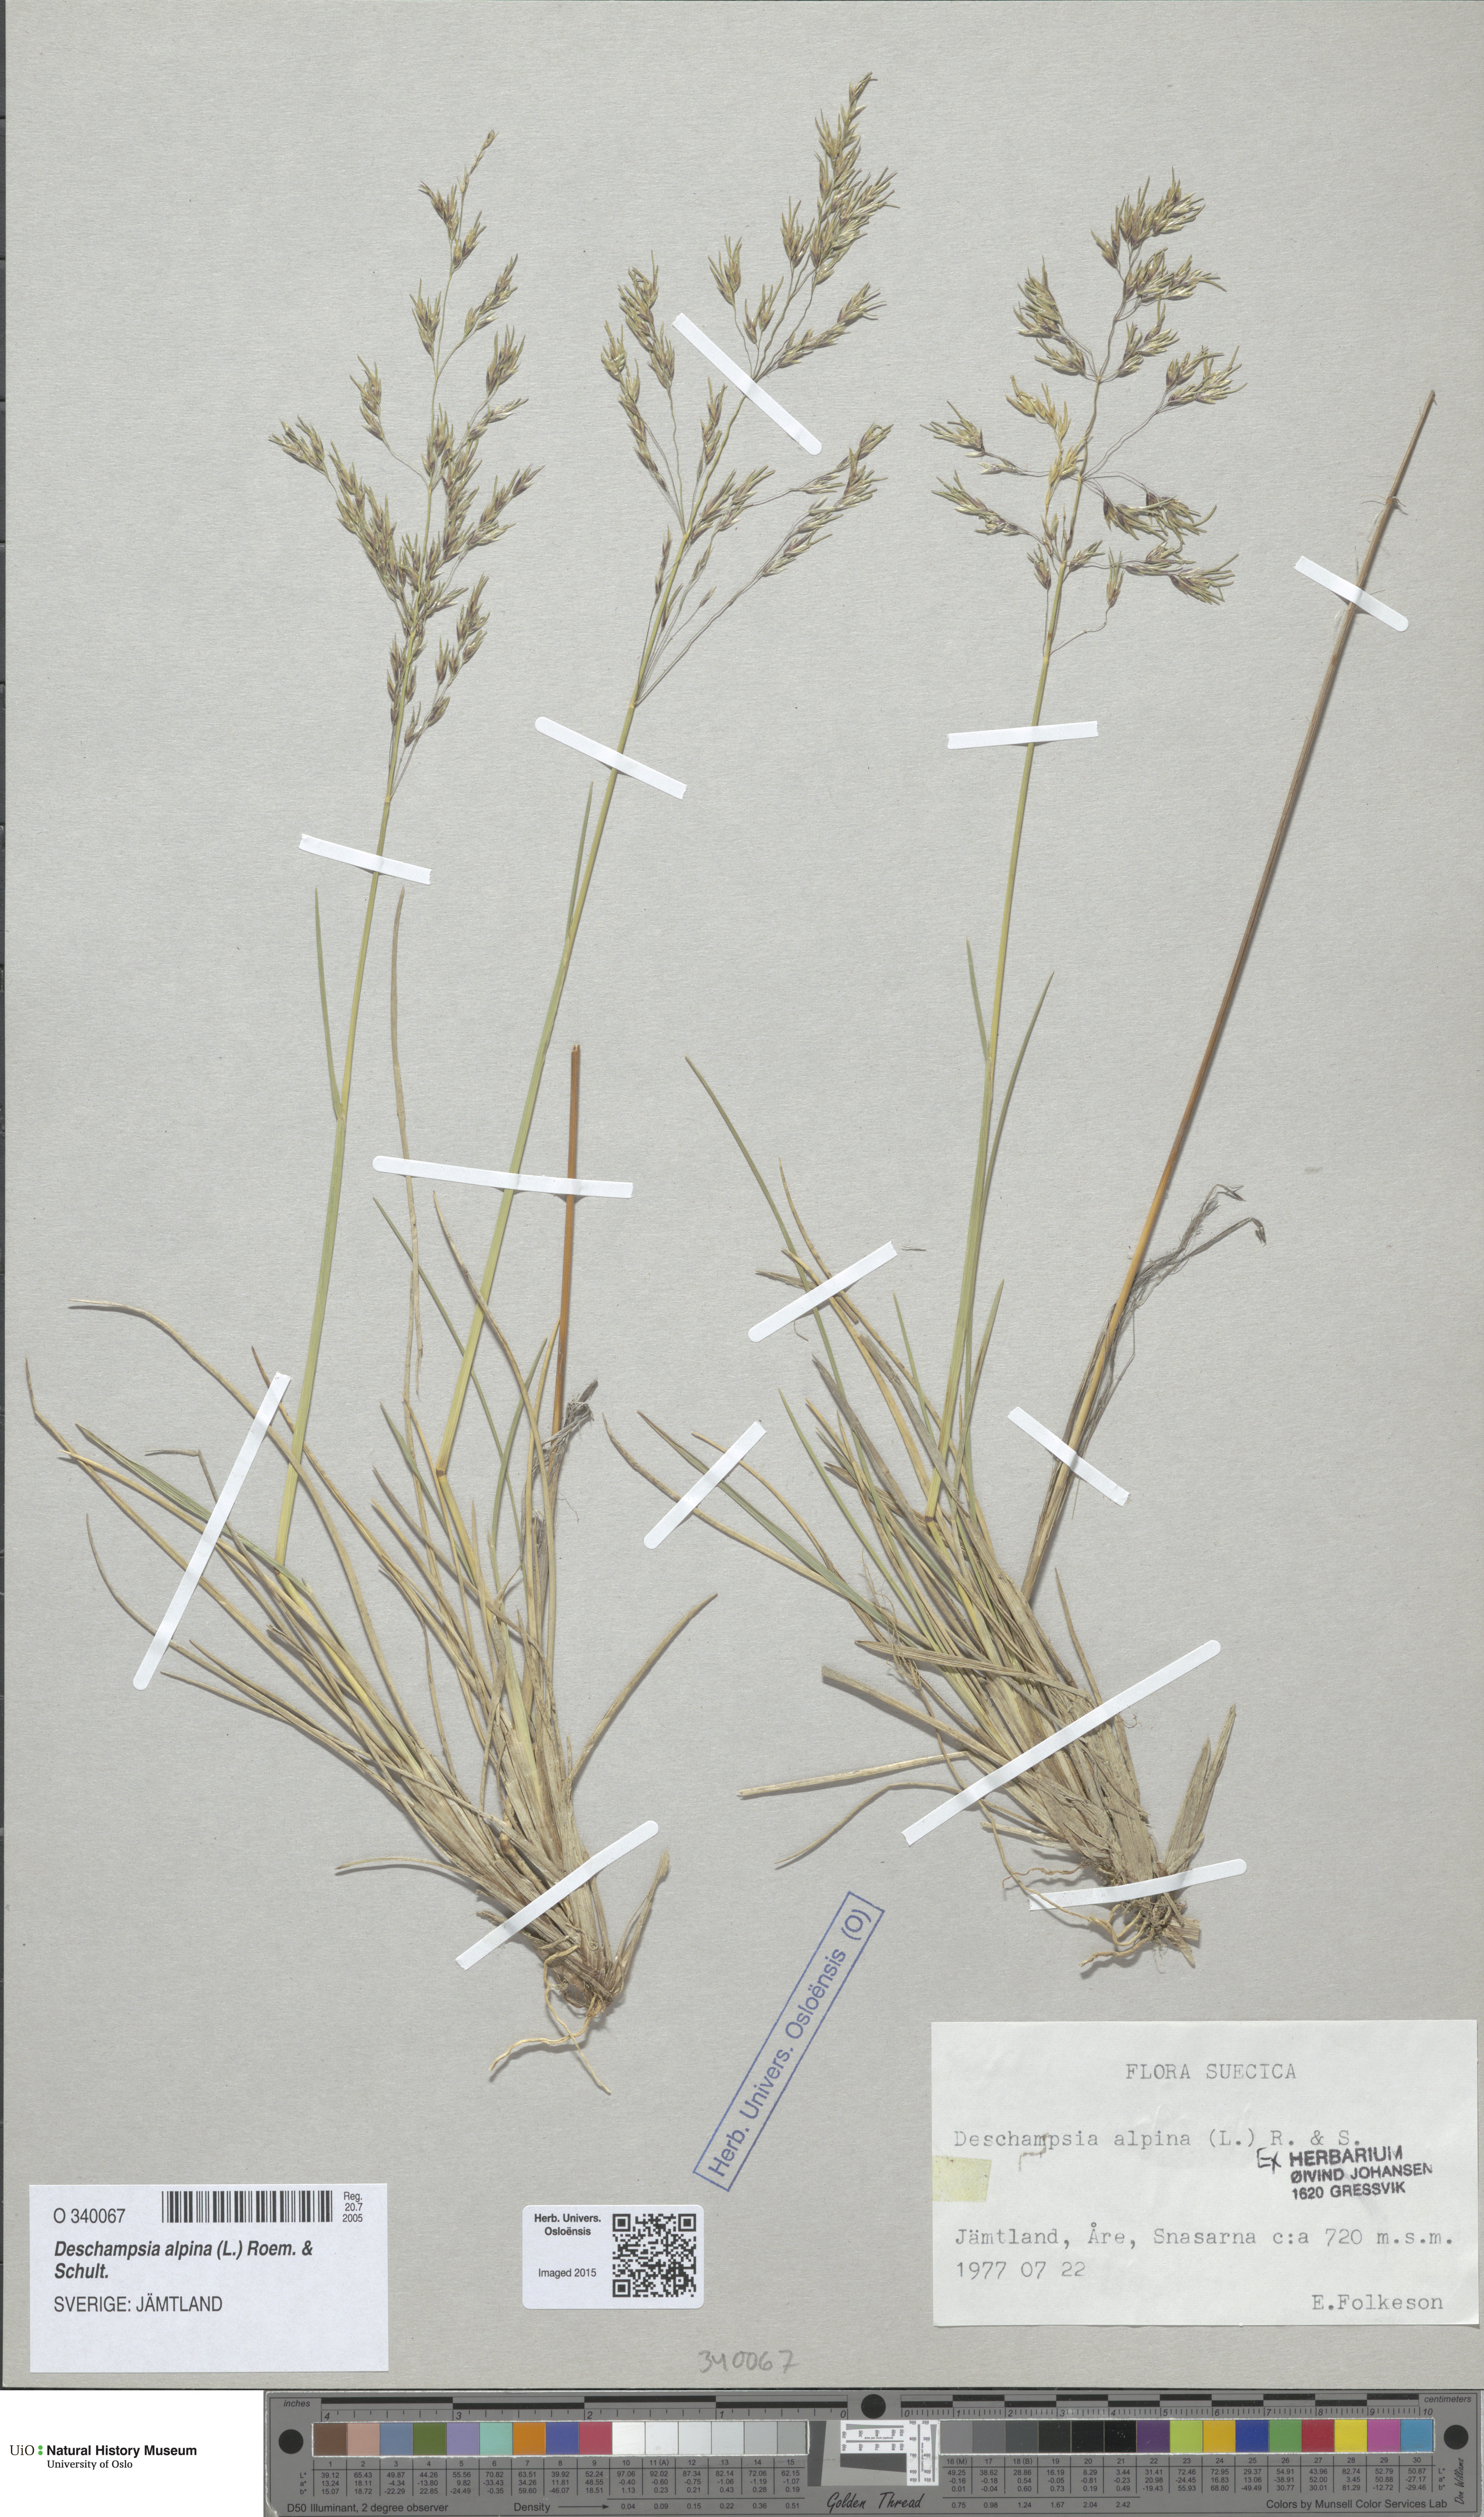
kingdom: Plantae
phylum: Tracheophyta
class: Liliopsida
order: Poales
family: Poaceae
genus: Deschampsia
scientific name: Deschampsia cespitosa
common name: Tufted hair-grass
